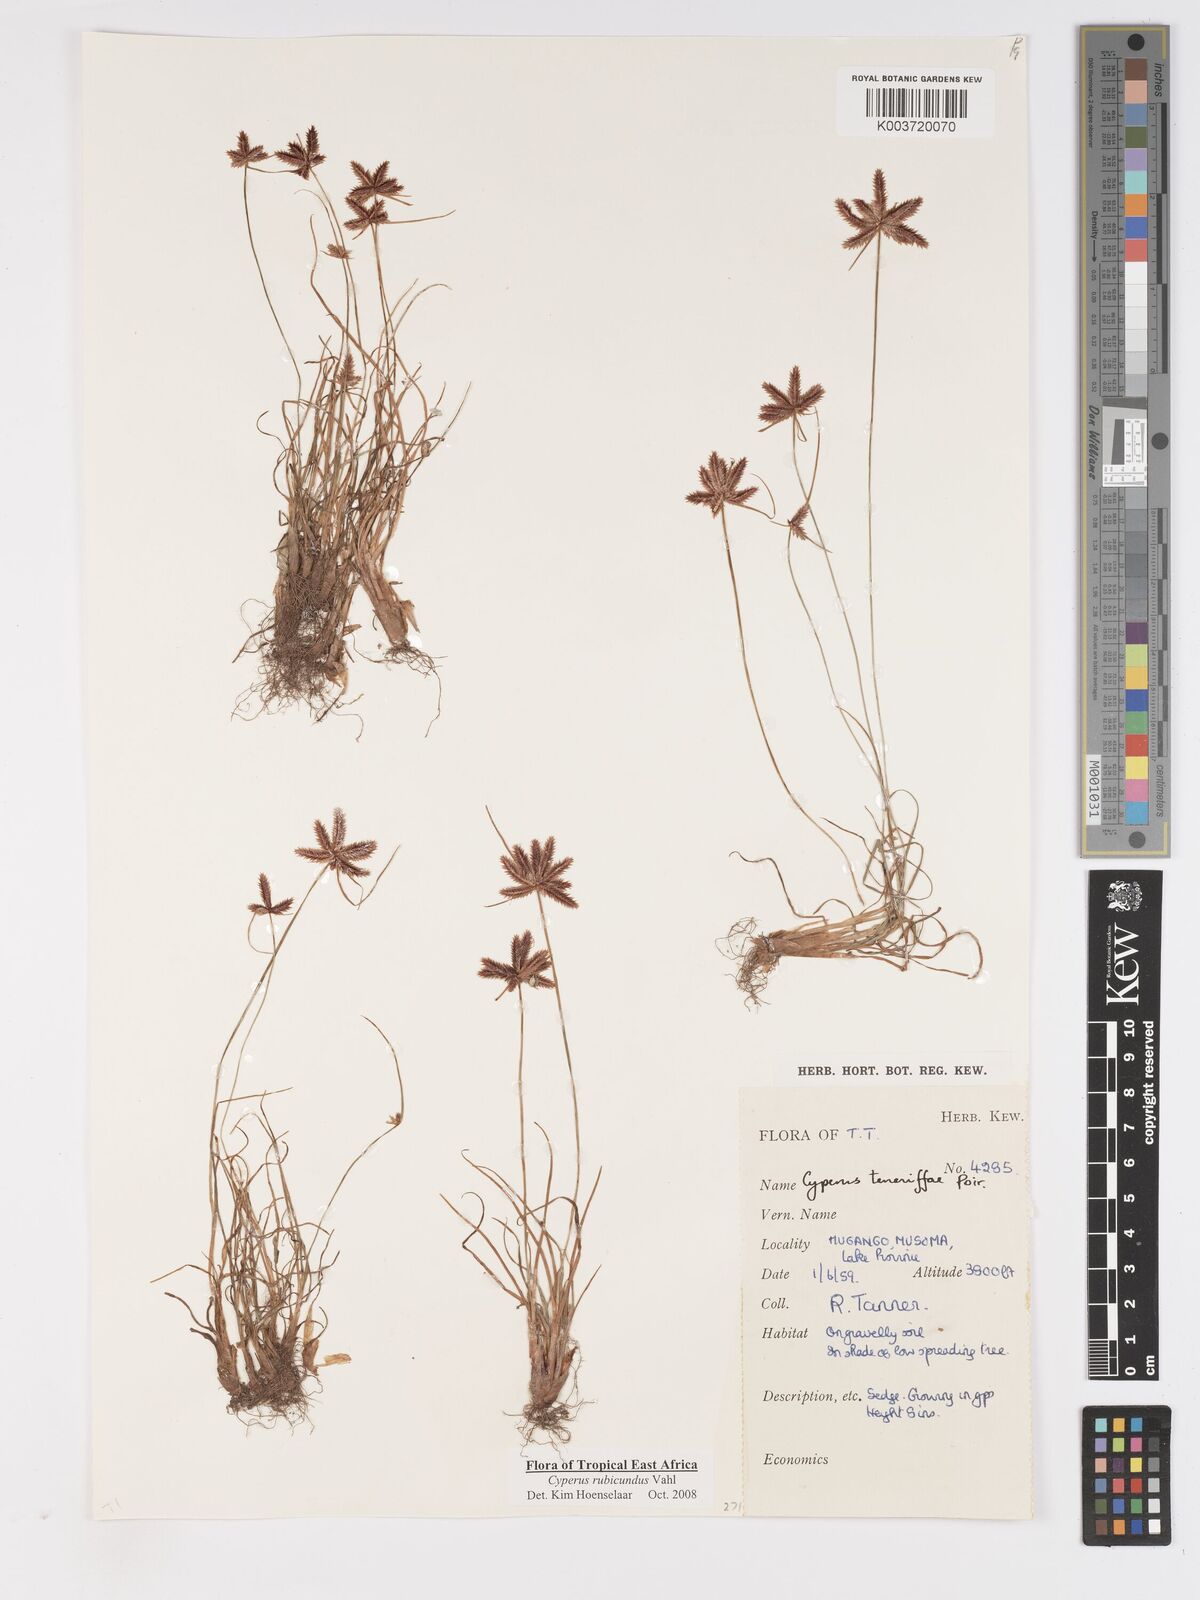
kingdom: Plantae
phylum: Tracheophyta
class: Liliopsida
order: Poales
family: Cyperaceae
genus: Cyperus
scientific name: Cyperus rubicundus
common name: Coco-grass
